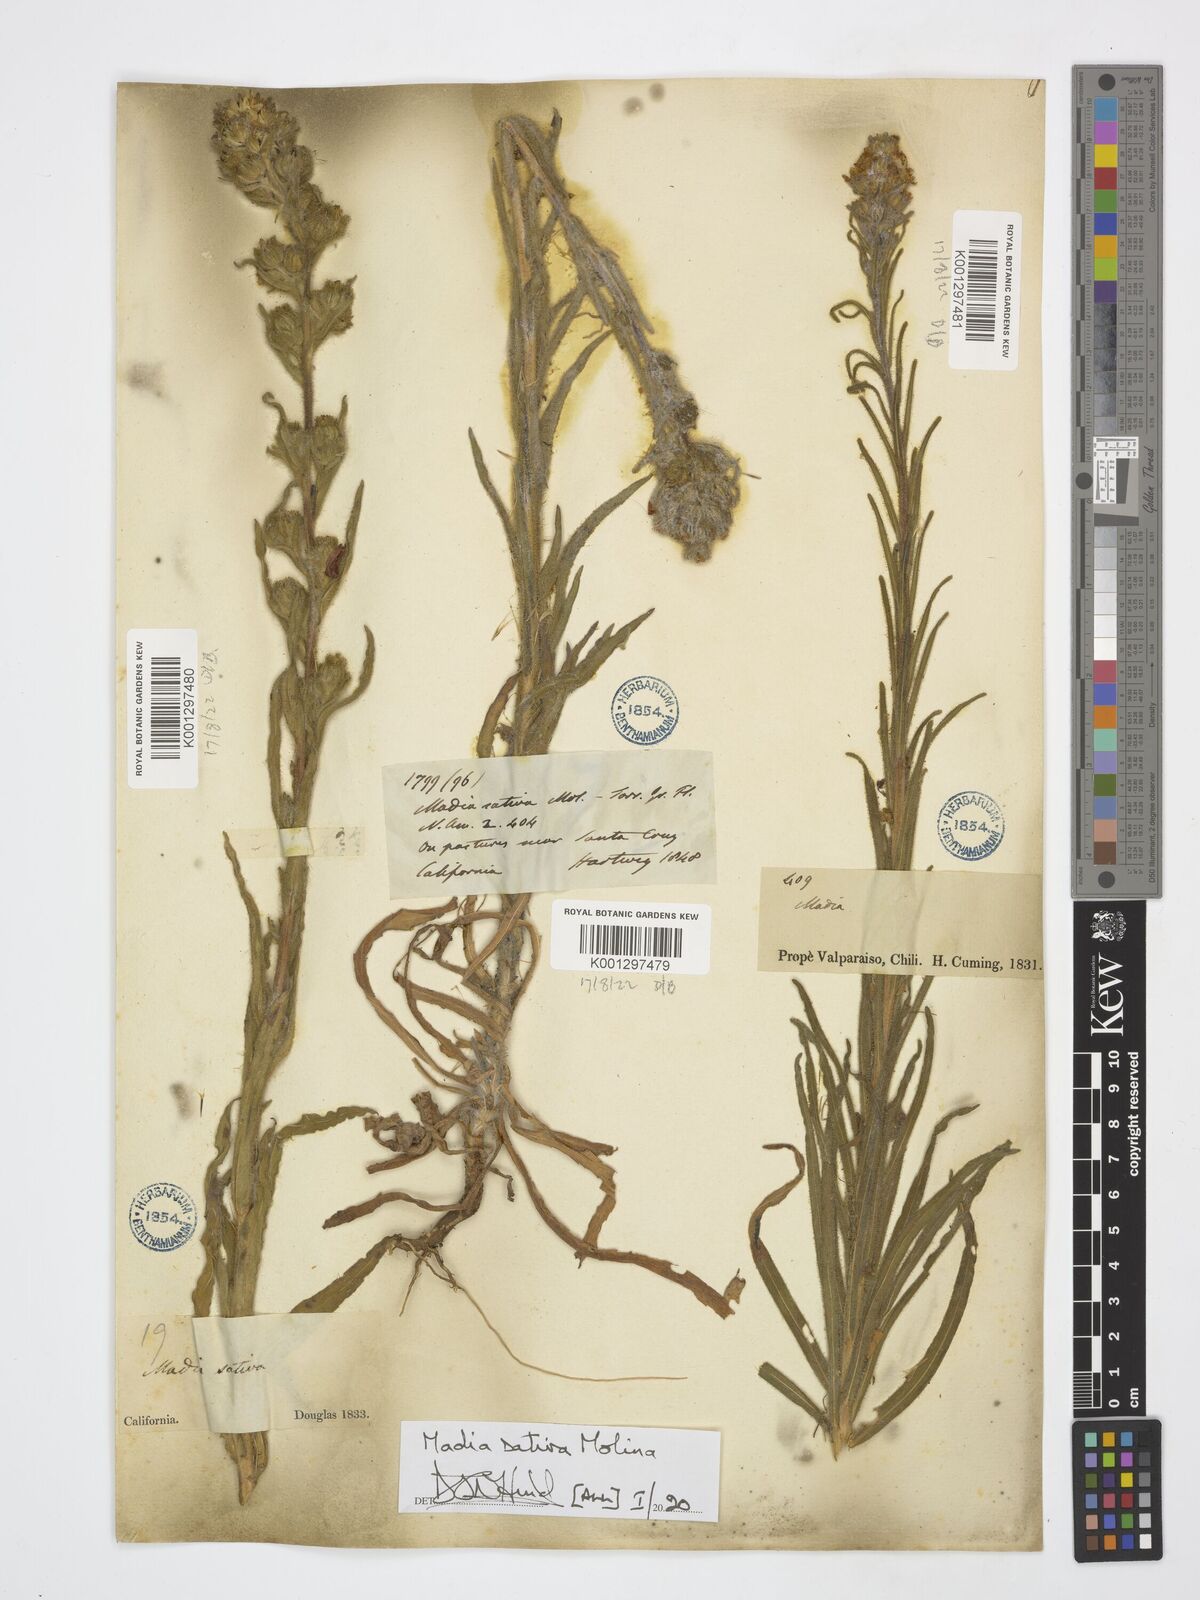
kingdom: Plantae
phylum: Tracheophyta
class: Magnoliopsida
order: Asterales
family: Asteraceae
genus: Madia
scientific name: Madia sativa
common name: Coast tarweed
